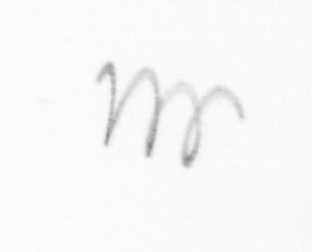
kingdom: Chromista
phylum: Ochrophyta
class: Bacillariophyceae
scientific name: Bacillariophyceae
